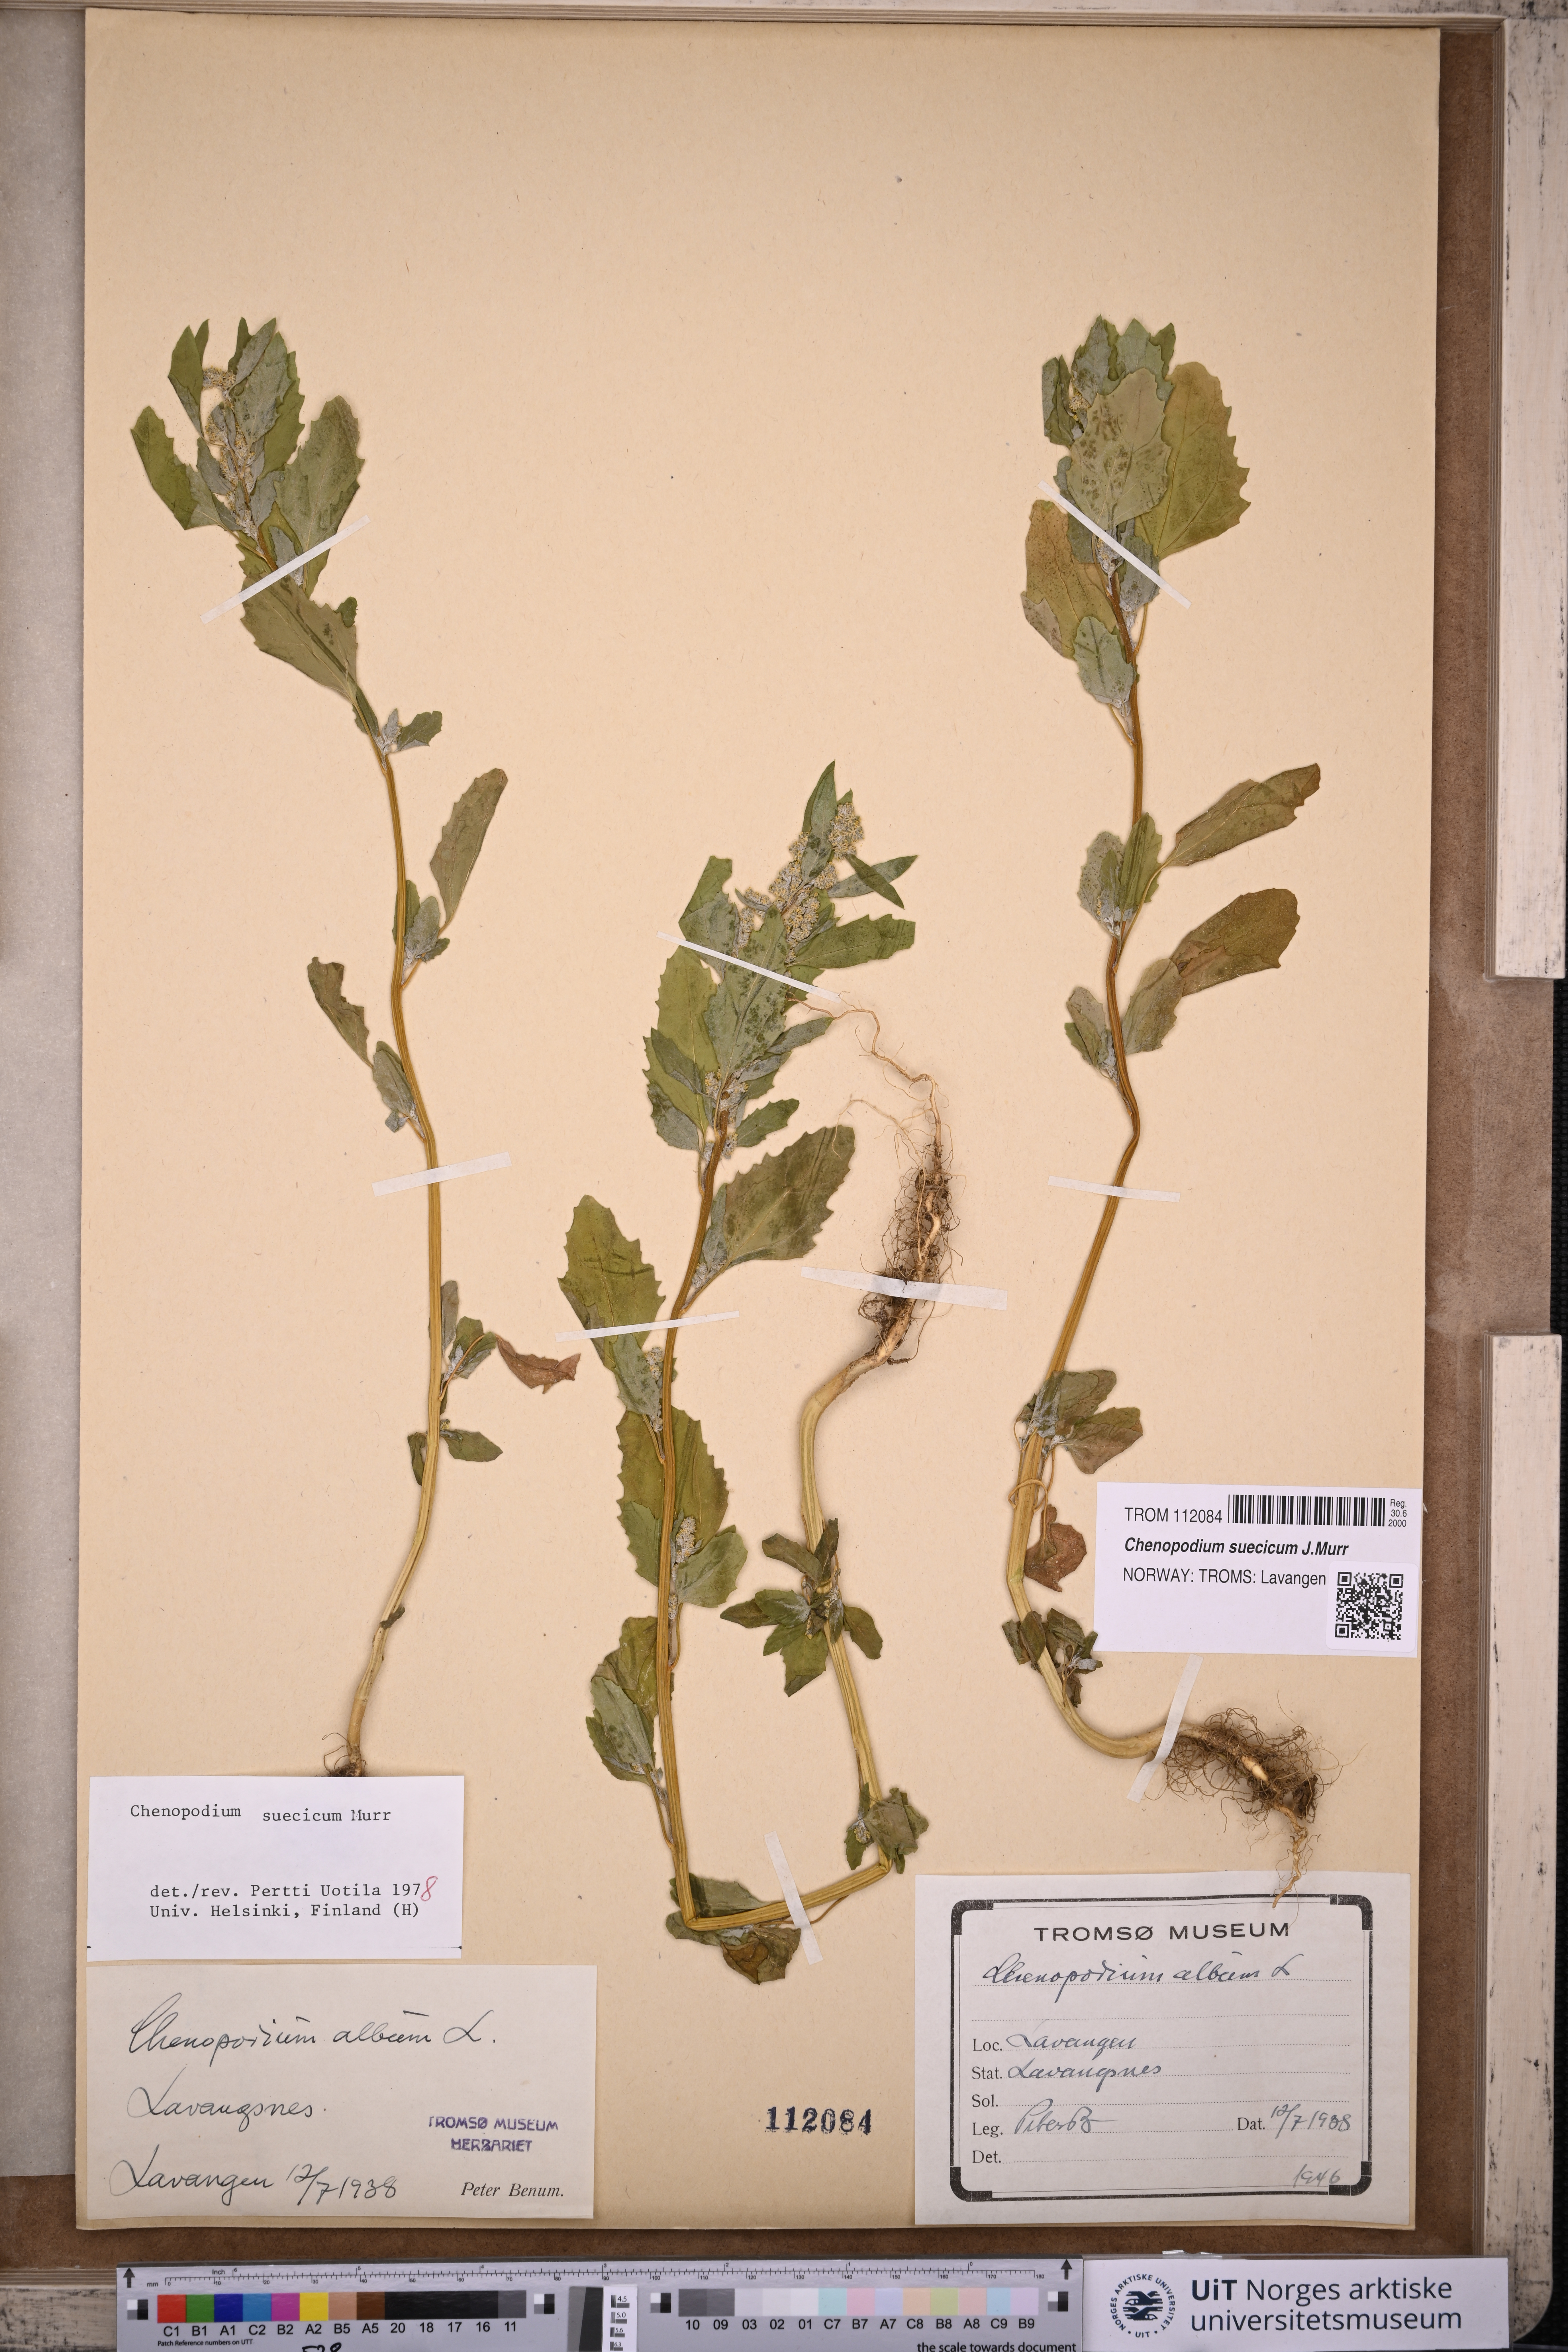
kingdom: Plantae
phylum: Tracheophyta
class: Magnoliopsida
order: Caryophyllales
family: Amaranthaceae
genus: Chenopodium
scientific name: Chenopodium suecicum
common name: Swedish goosefoot
